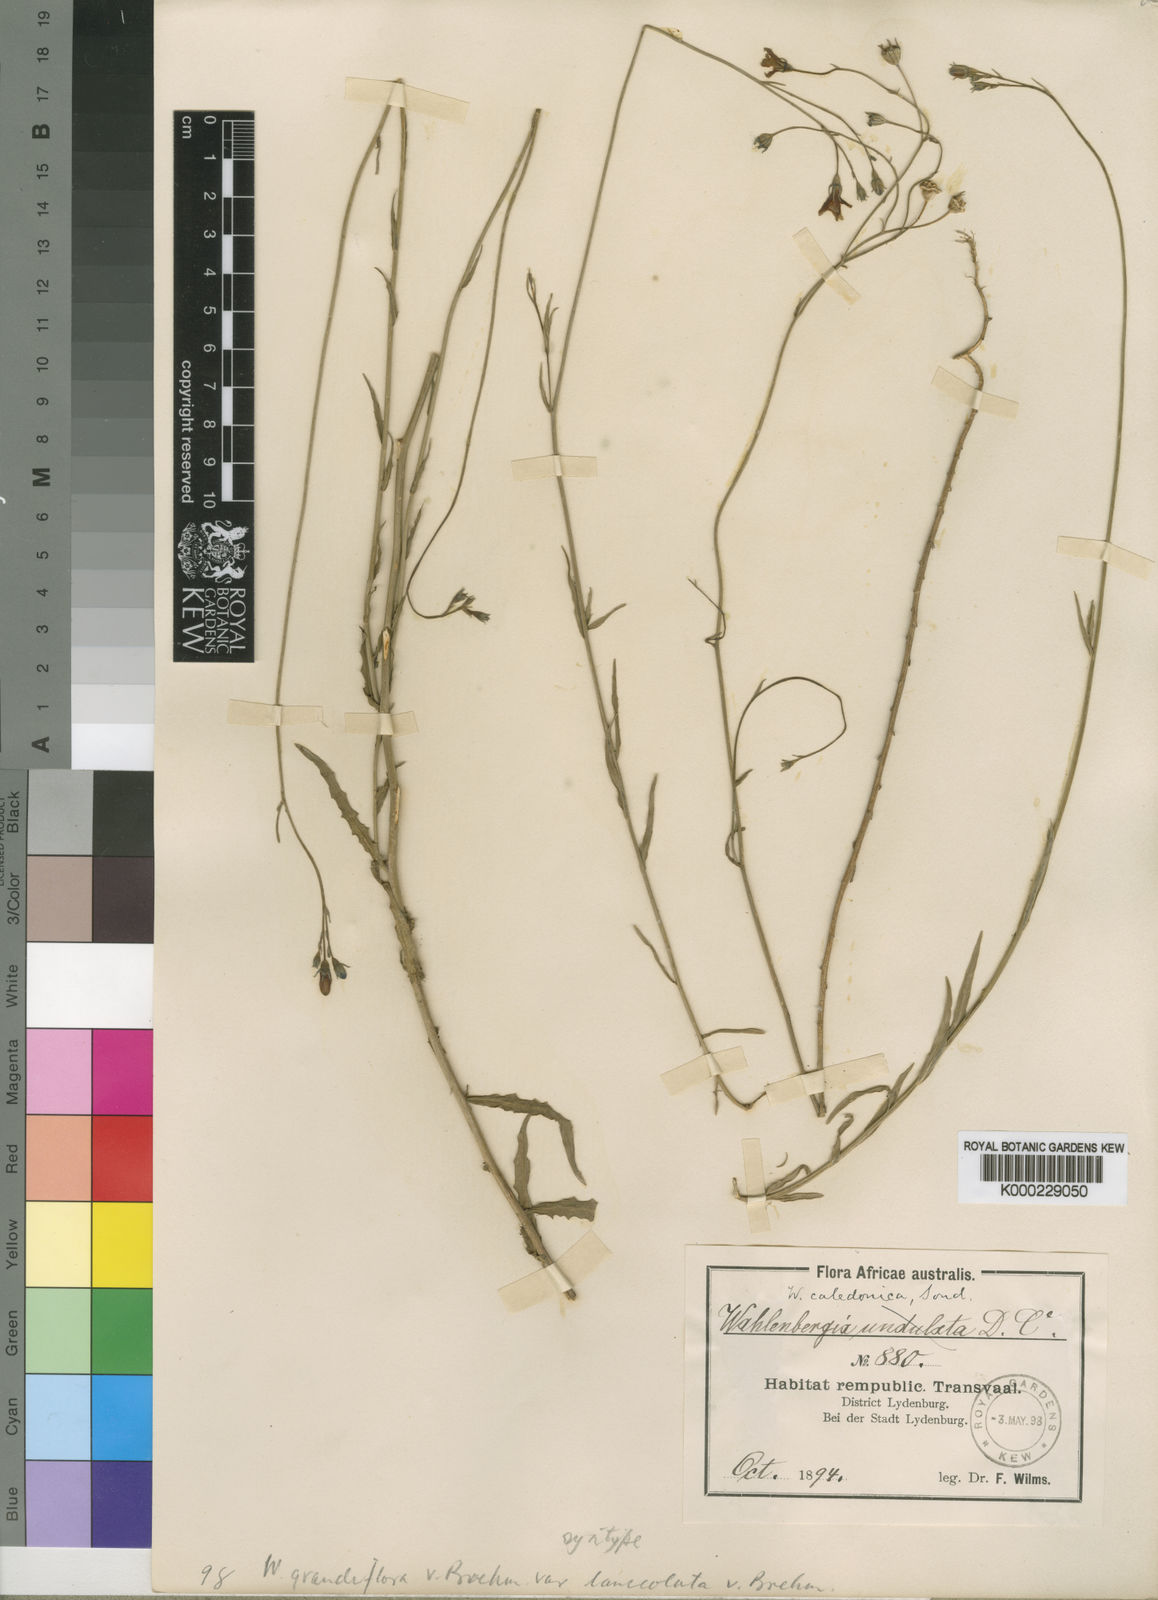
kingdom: Plantae
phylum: Tracheophyta
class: Magnoliopsida
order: Asterales
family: Campanulaceae
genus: Wahlenbergia
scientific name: Wahlenbergia grandiflora
